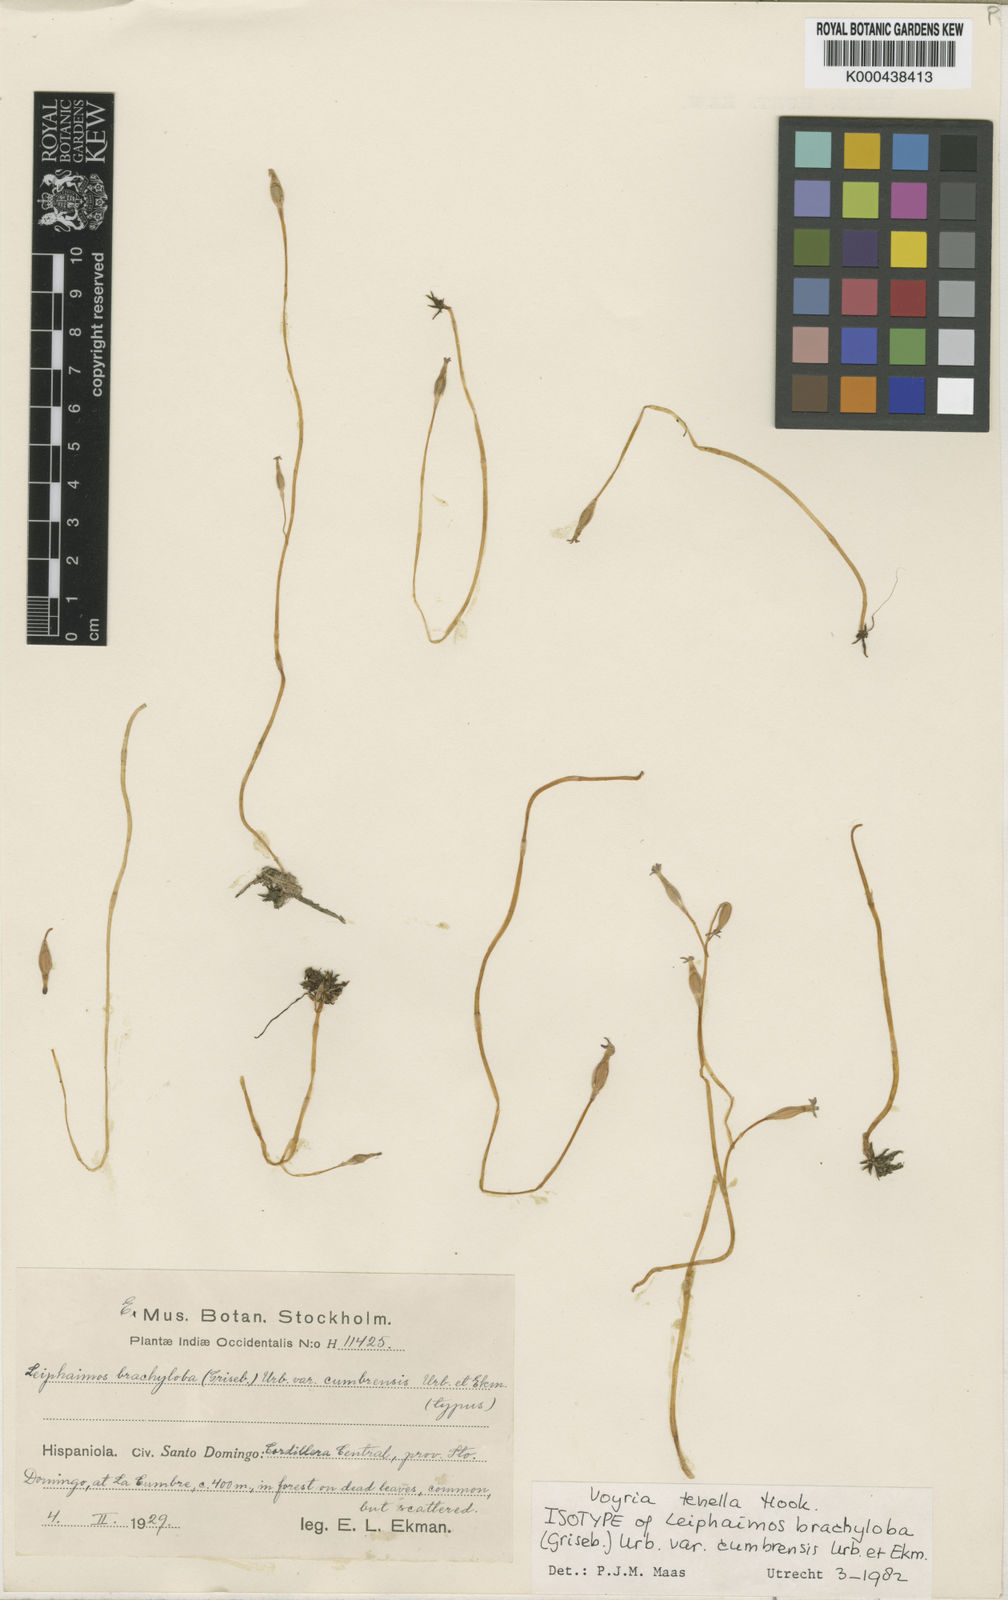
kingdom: Plantae
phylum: Tracheophyta
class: Magnoliopsida
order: Gentianales
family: Gentianaceae
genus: Voyria
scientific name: Voyria tenella
